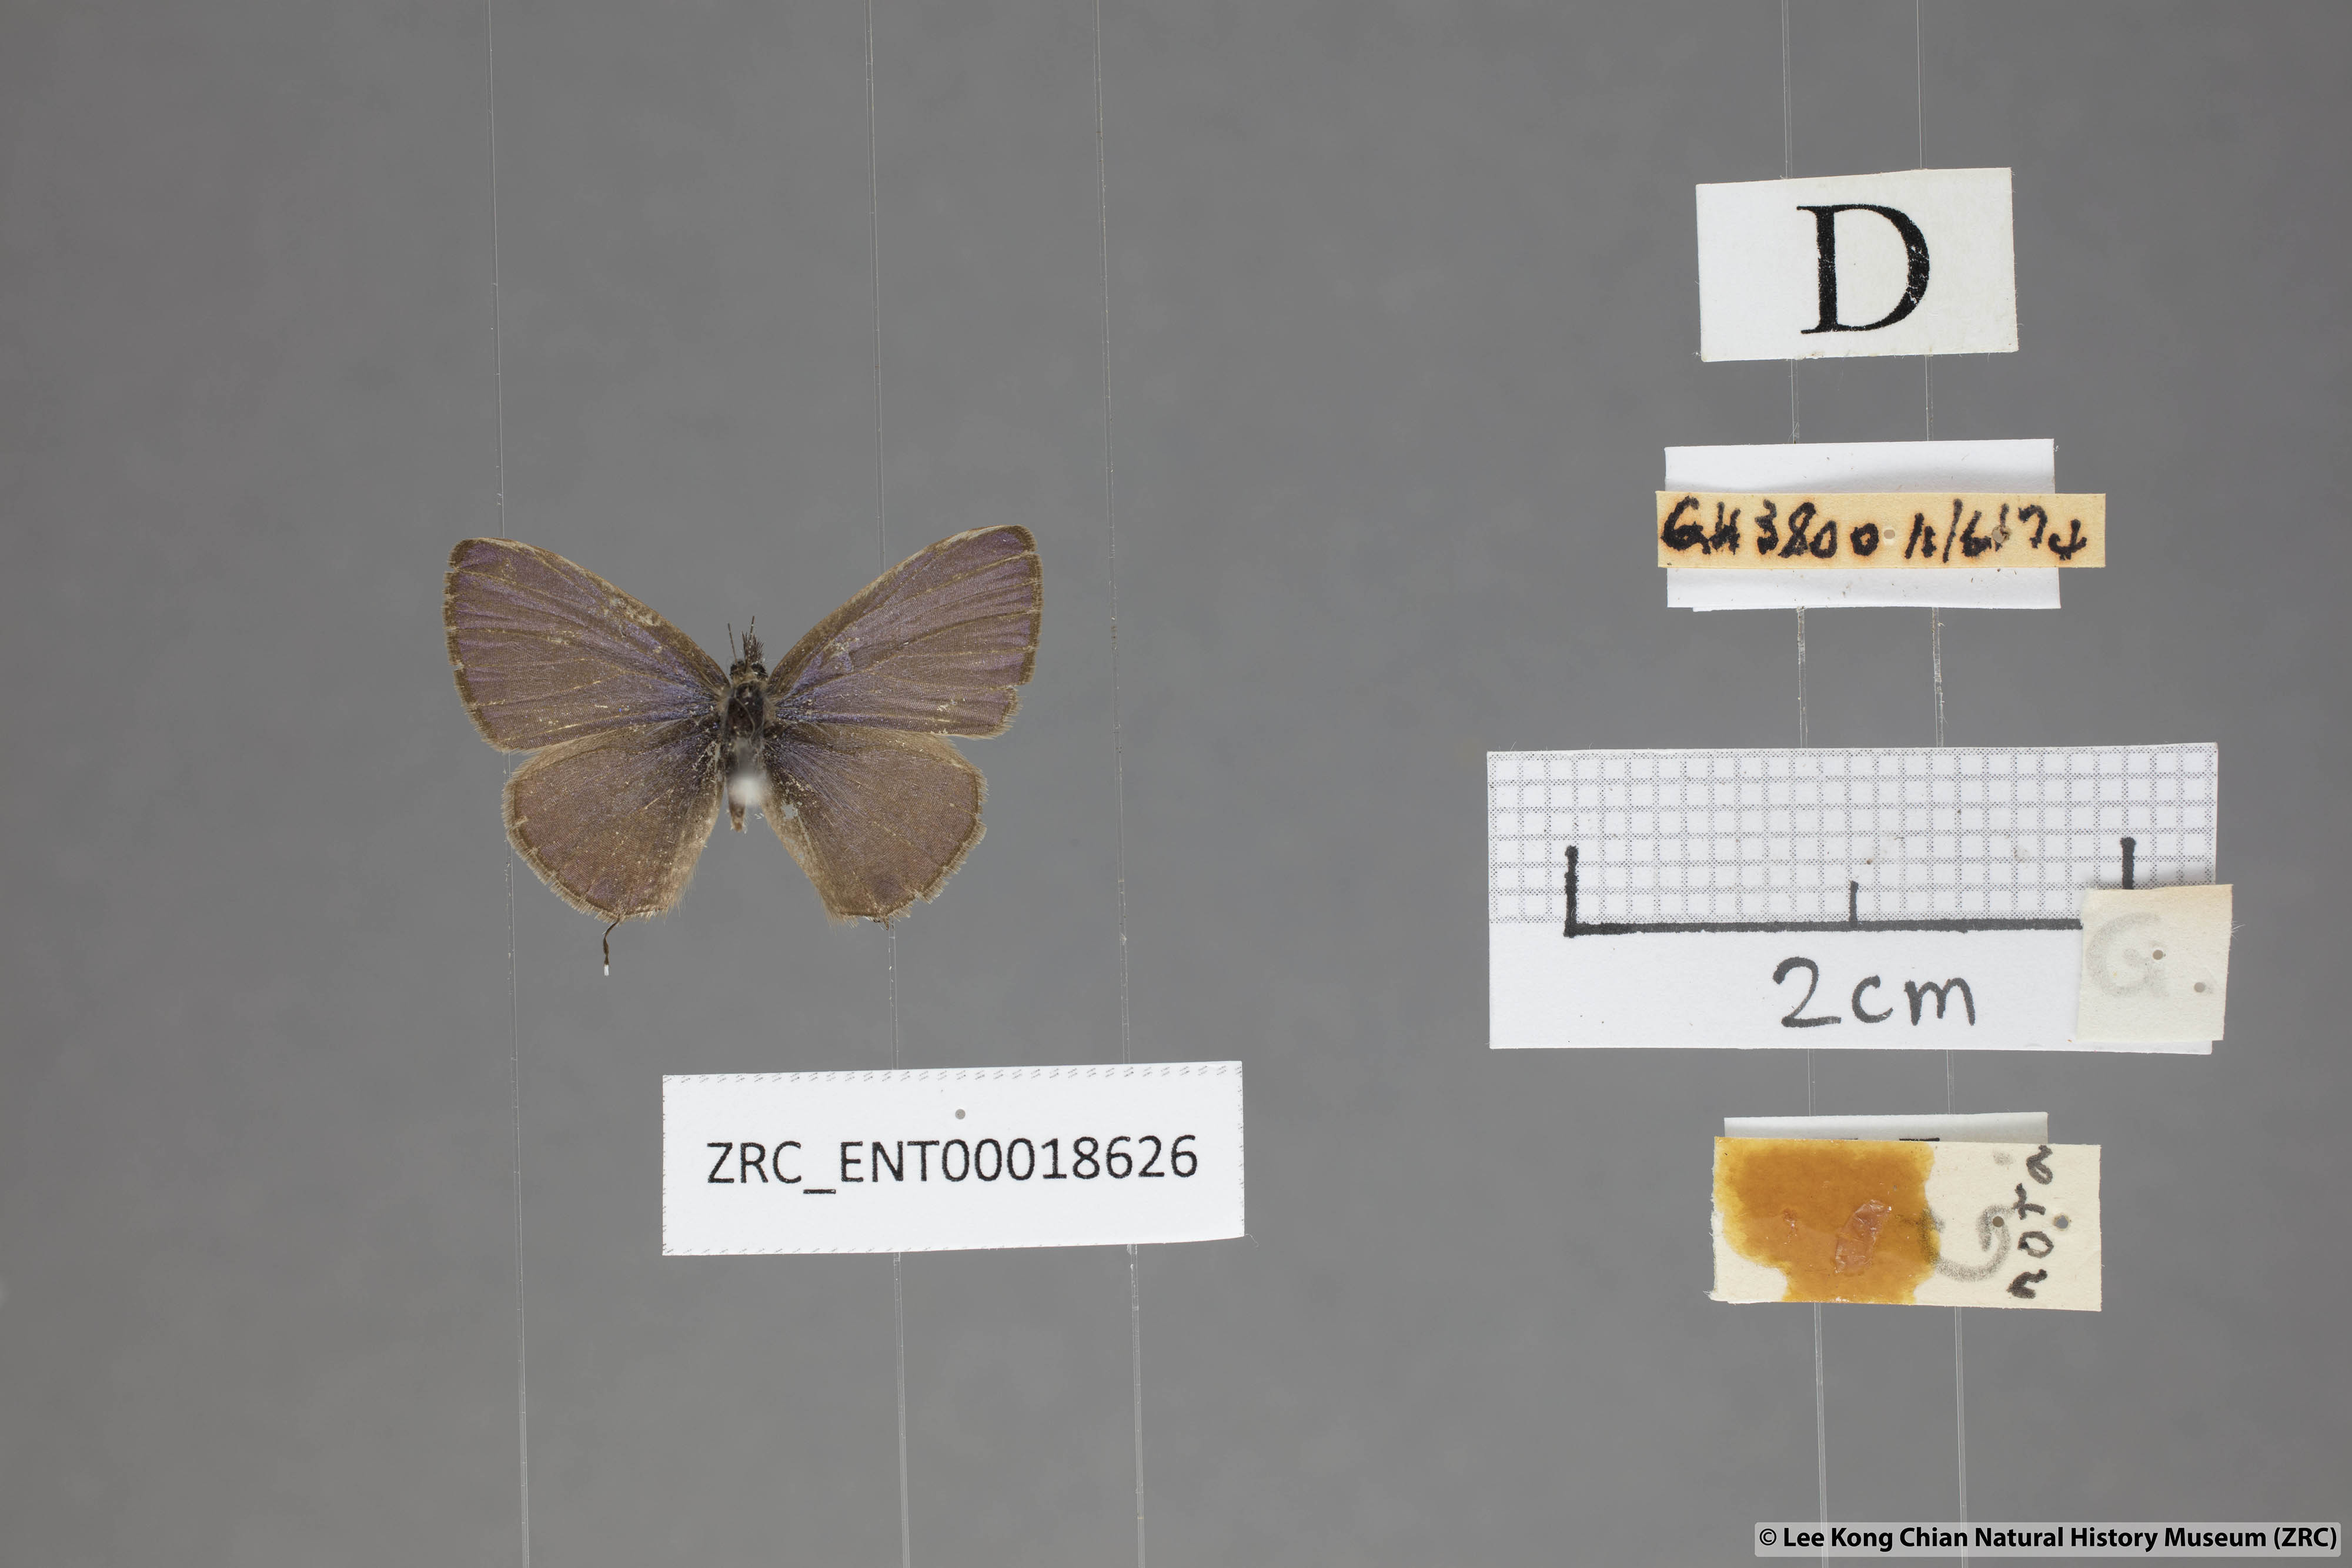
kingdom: Animalia
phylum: Arthropoda
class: Insecta
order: Lepidoptera
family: Lycaenidae
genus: Prosotas
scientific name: Prosotas nora
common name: Common line blue
